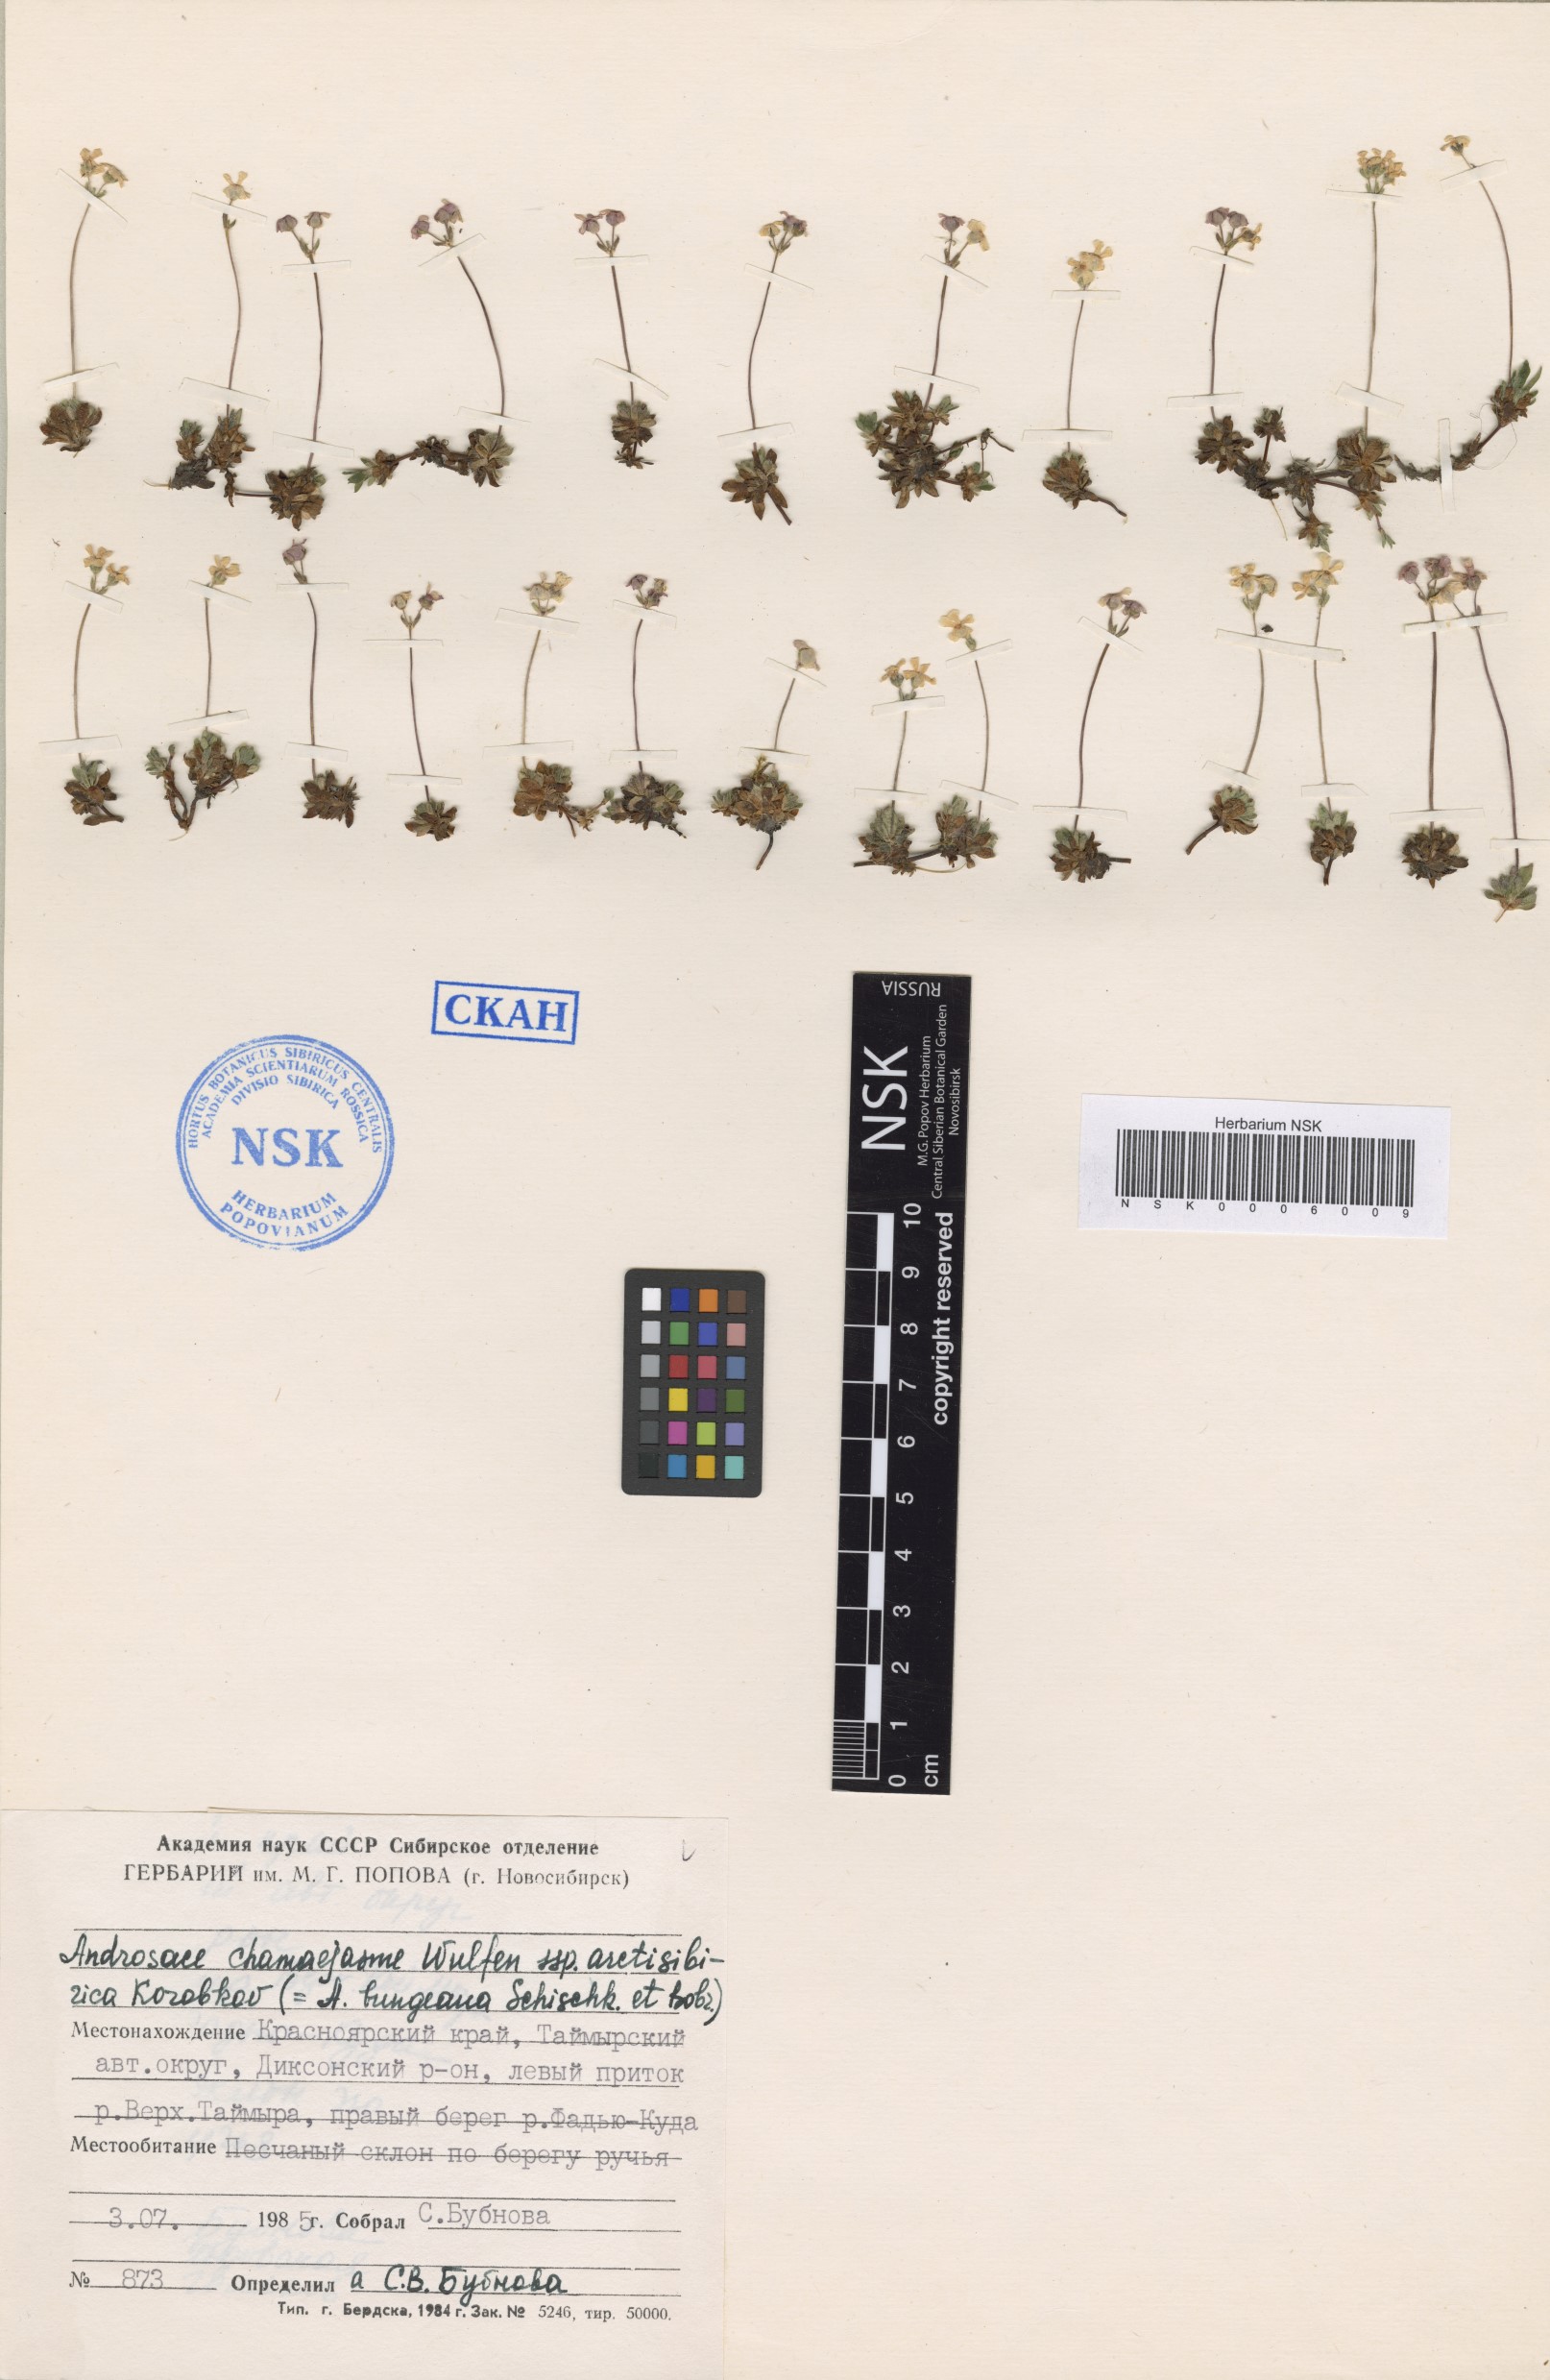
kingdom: Plantae
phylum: Tracheophyta
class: Magnoliopsida
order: Ericales
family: Primulaceae
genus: Androsace
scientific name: Androsace bungeana
